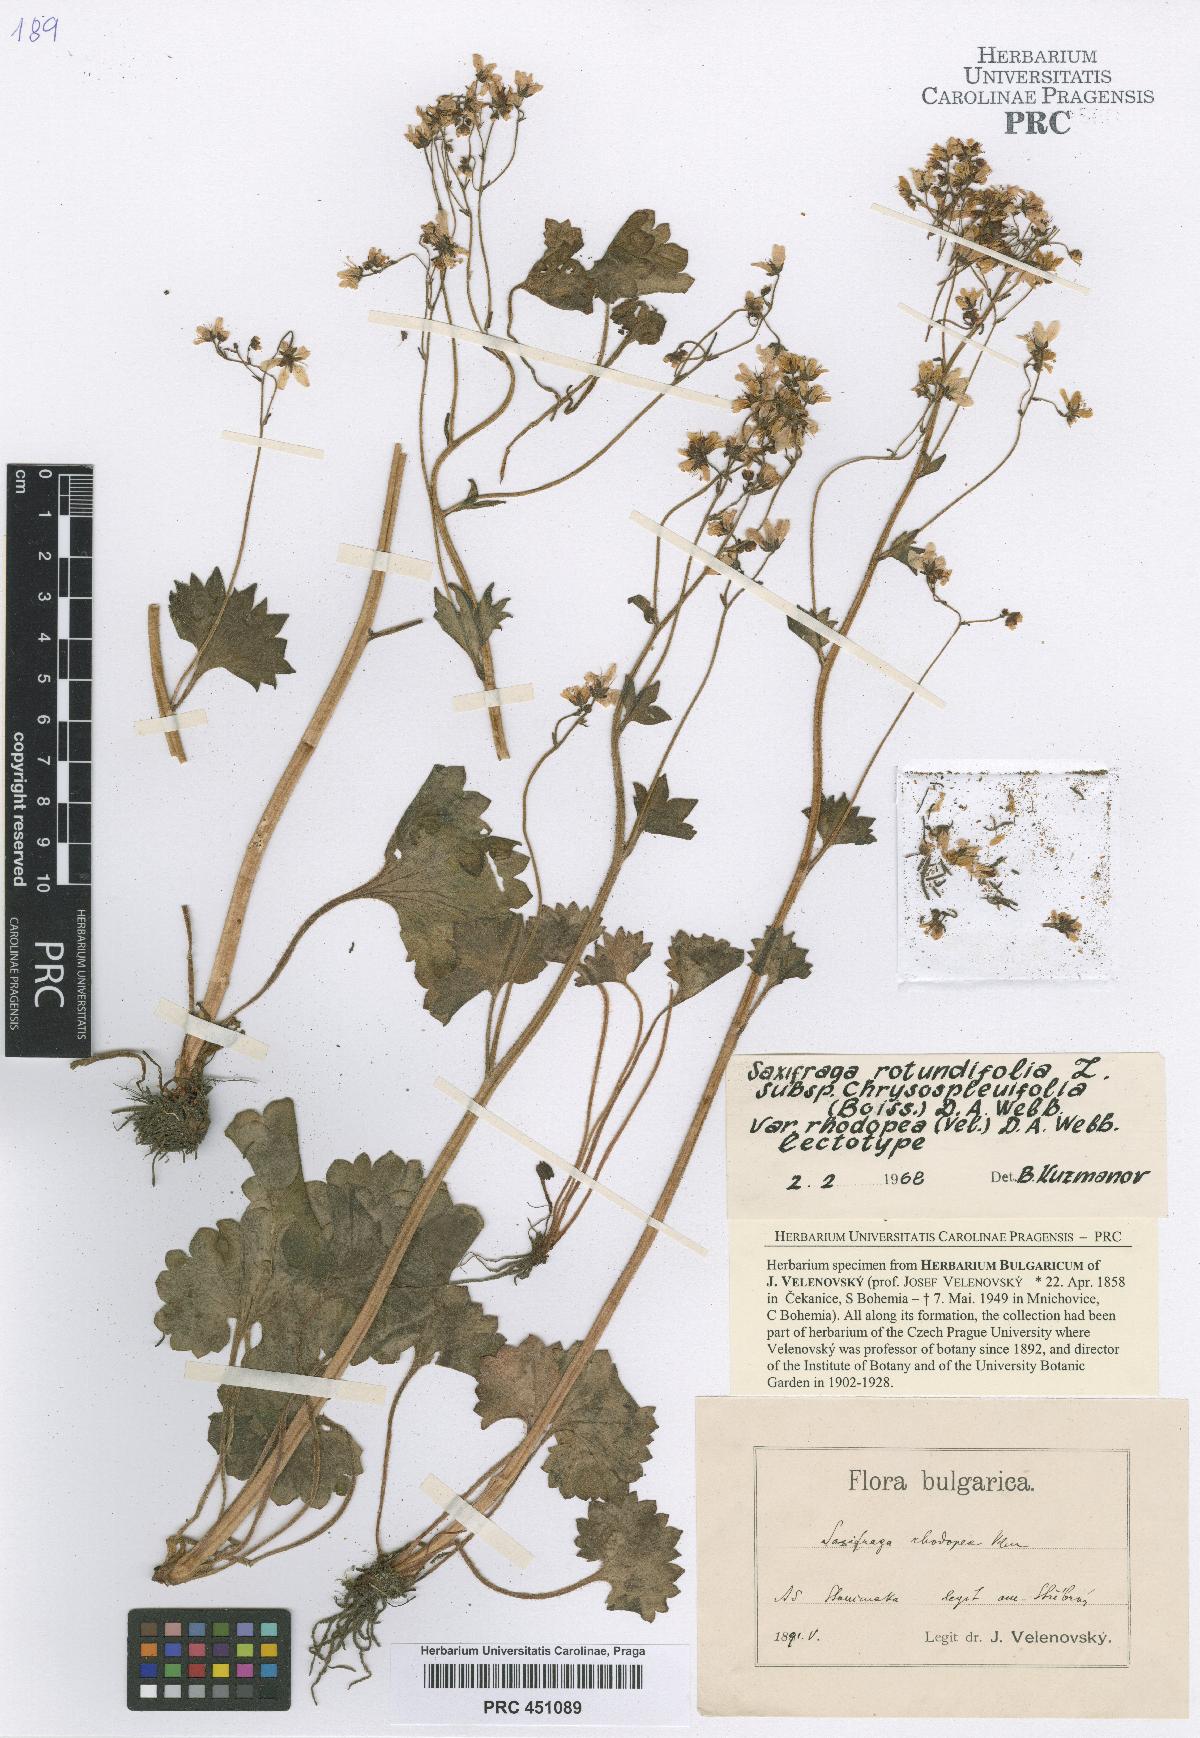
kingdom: Plantae
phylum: Tracheophyta
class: Magnoliopsida
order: Saxifragales
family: Saxifragaceae
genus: Saxifraga
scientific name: Saxifraga rotundifolia
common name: Round-leaved saxifrage
